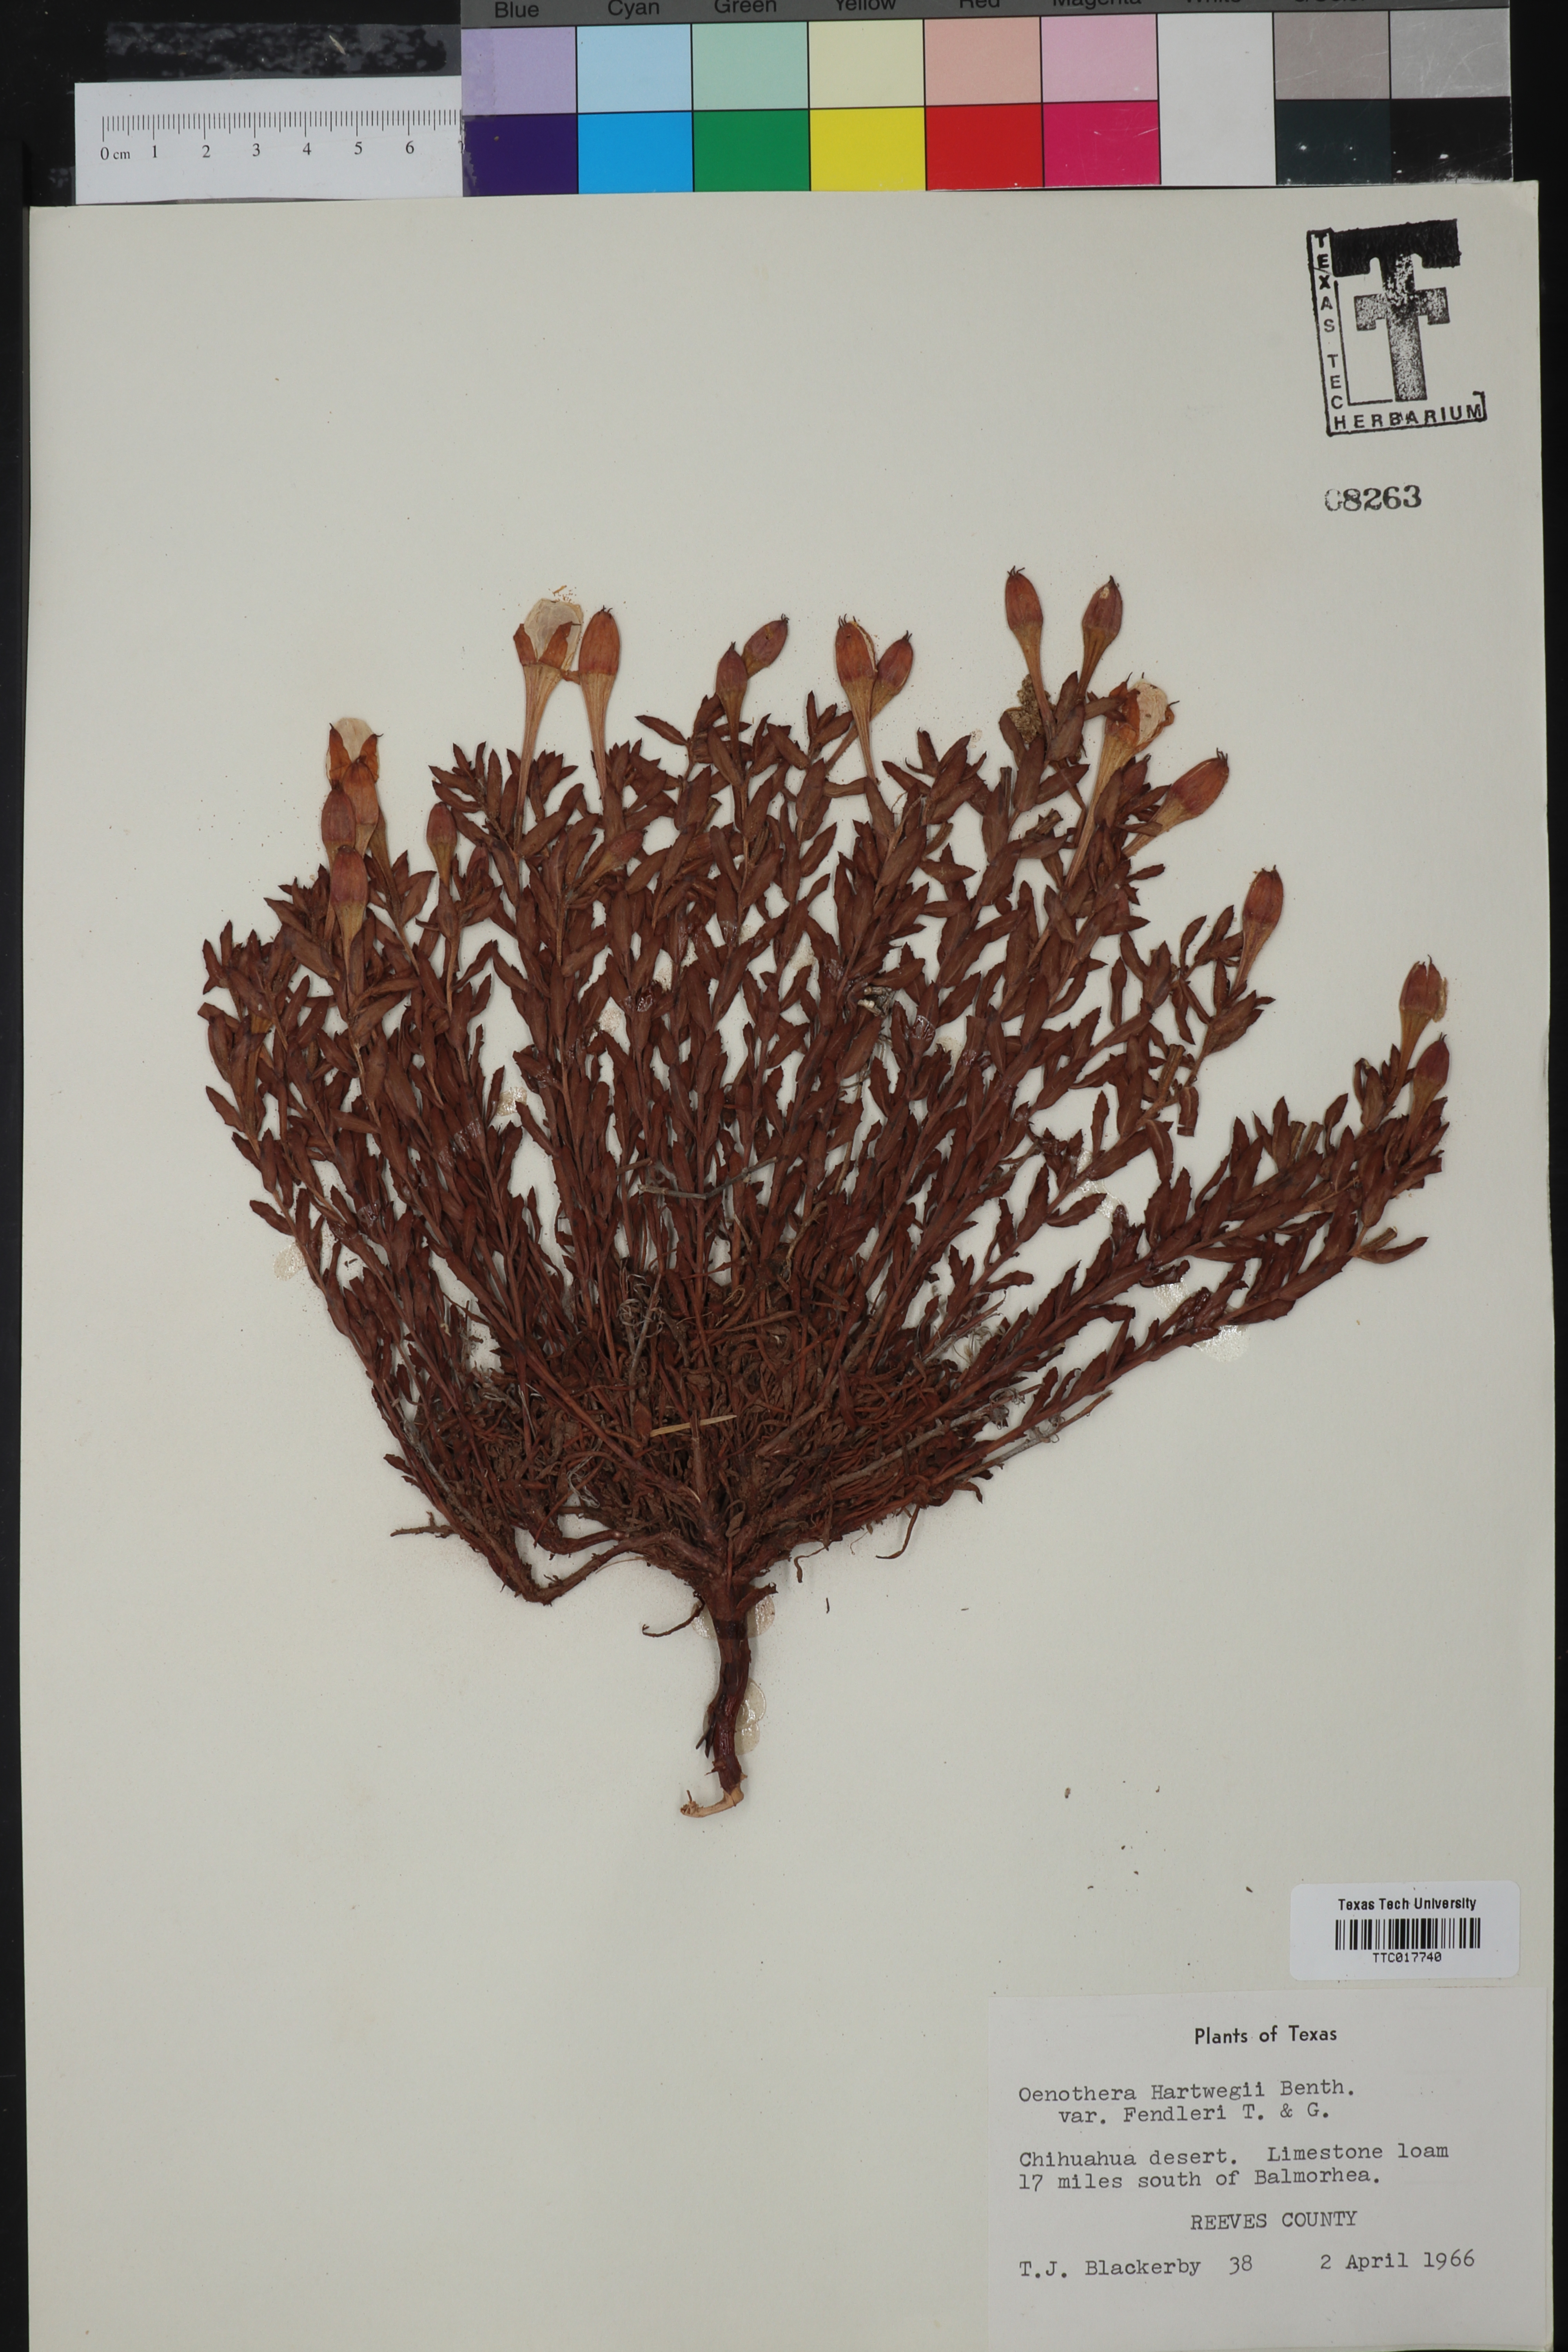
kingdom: Plantae
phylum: Tracheophyta
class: Magnoliopsida
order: Myrtales
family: Onagraceae
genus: Oenothera
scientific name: Oenothera hartwegii
